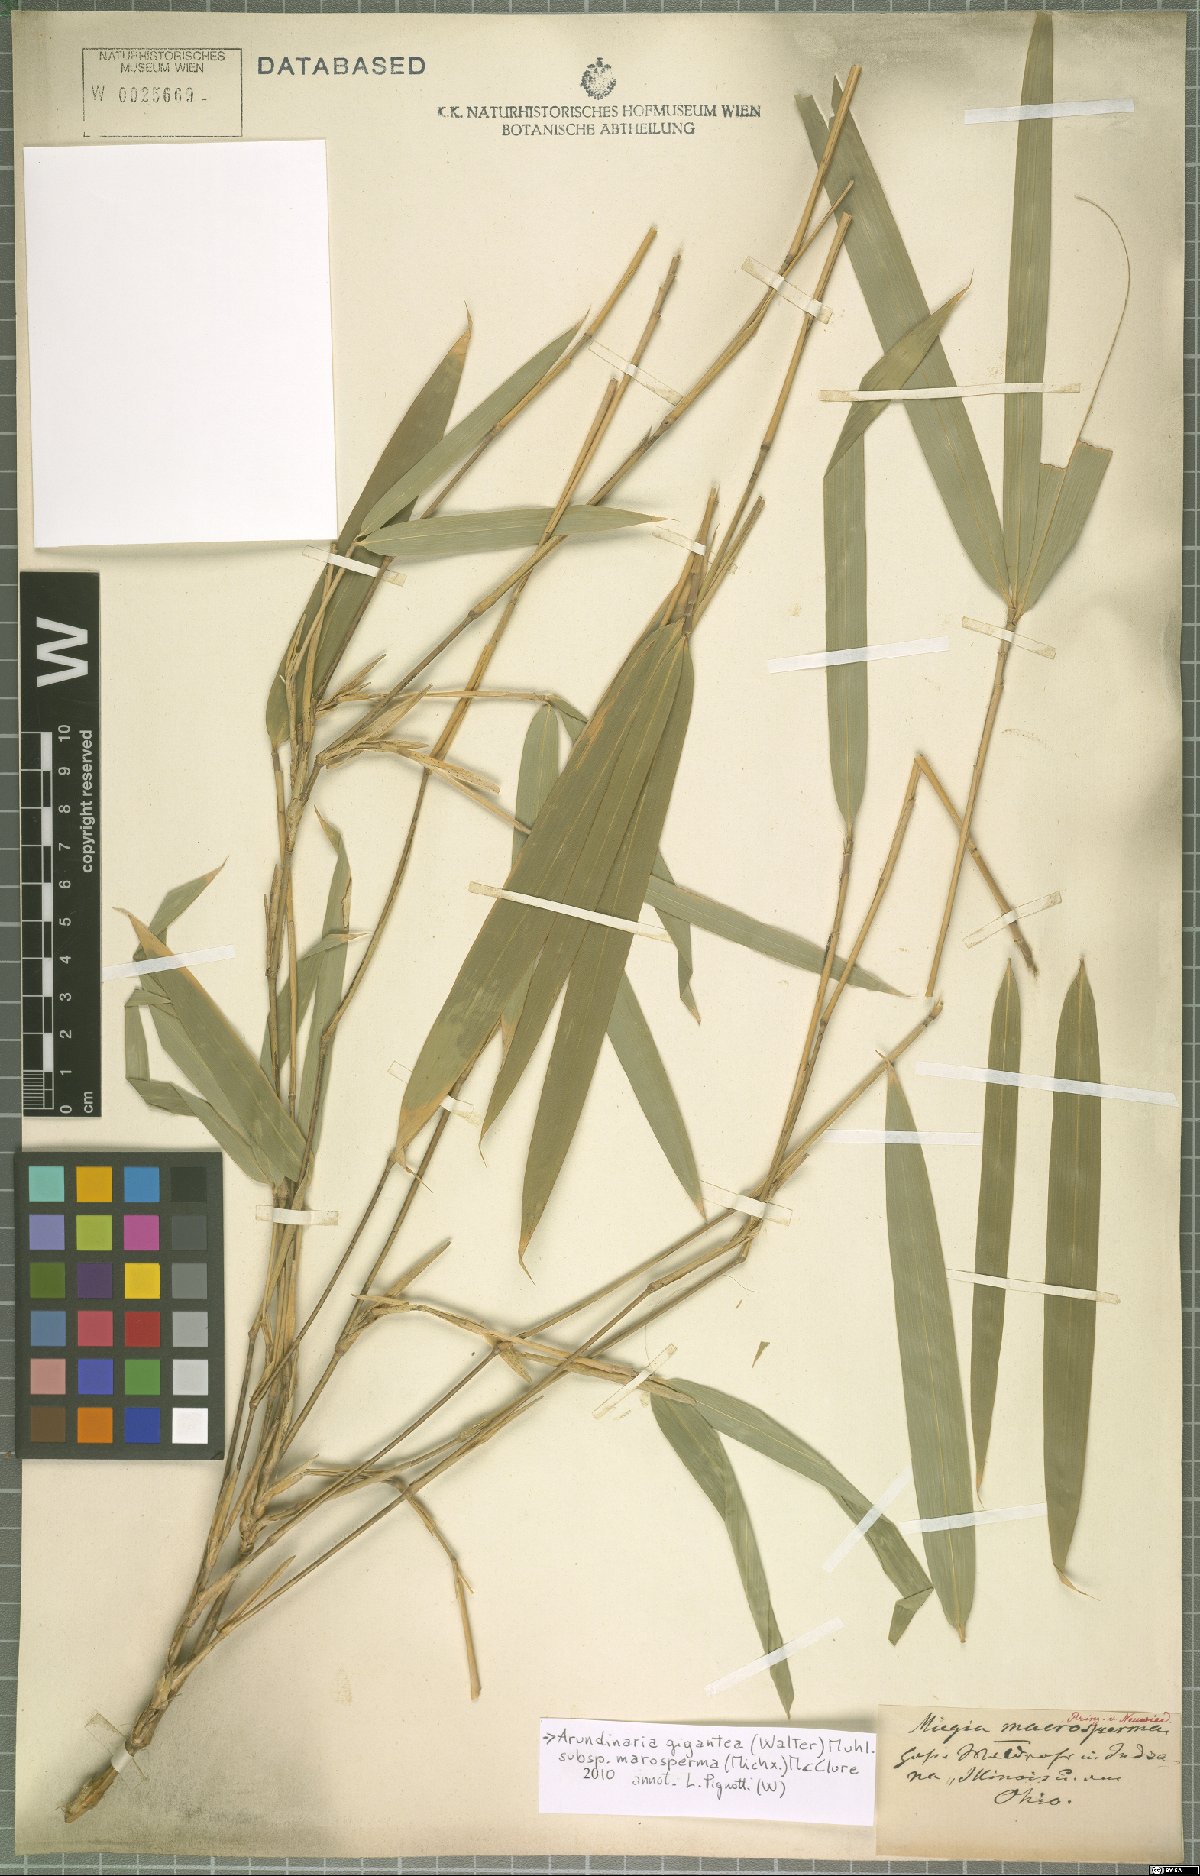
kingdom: Plantae
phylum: Tracheophyta
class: Liliopsida
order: Poales
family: Poaceae
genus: Arundinaria
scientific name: Arundinaria gigantea
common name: Giant cane
